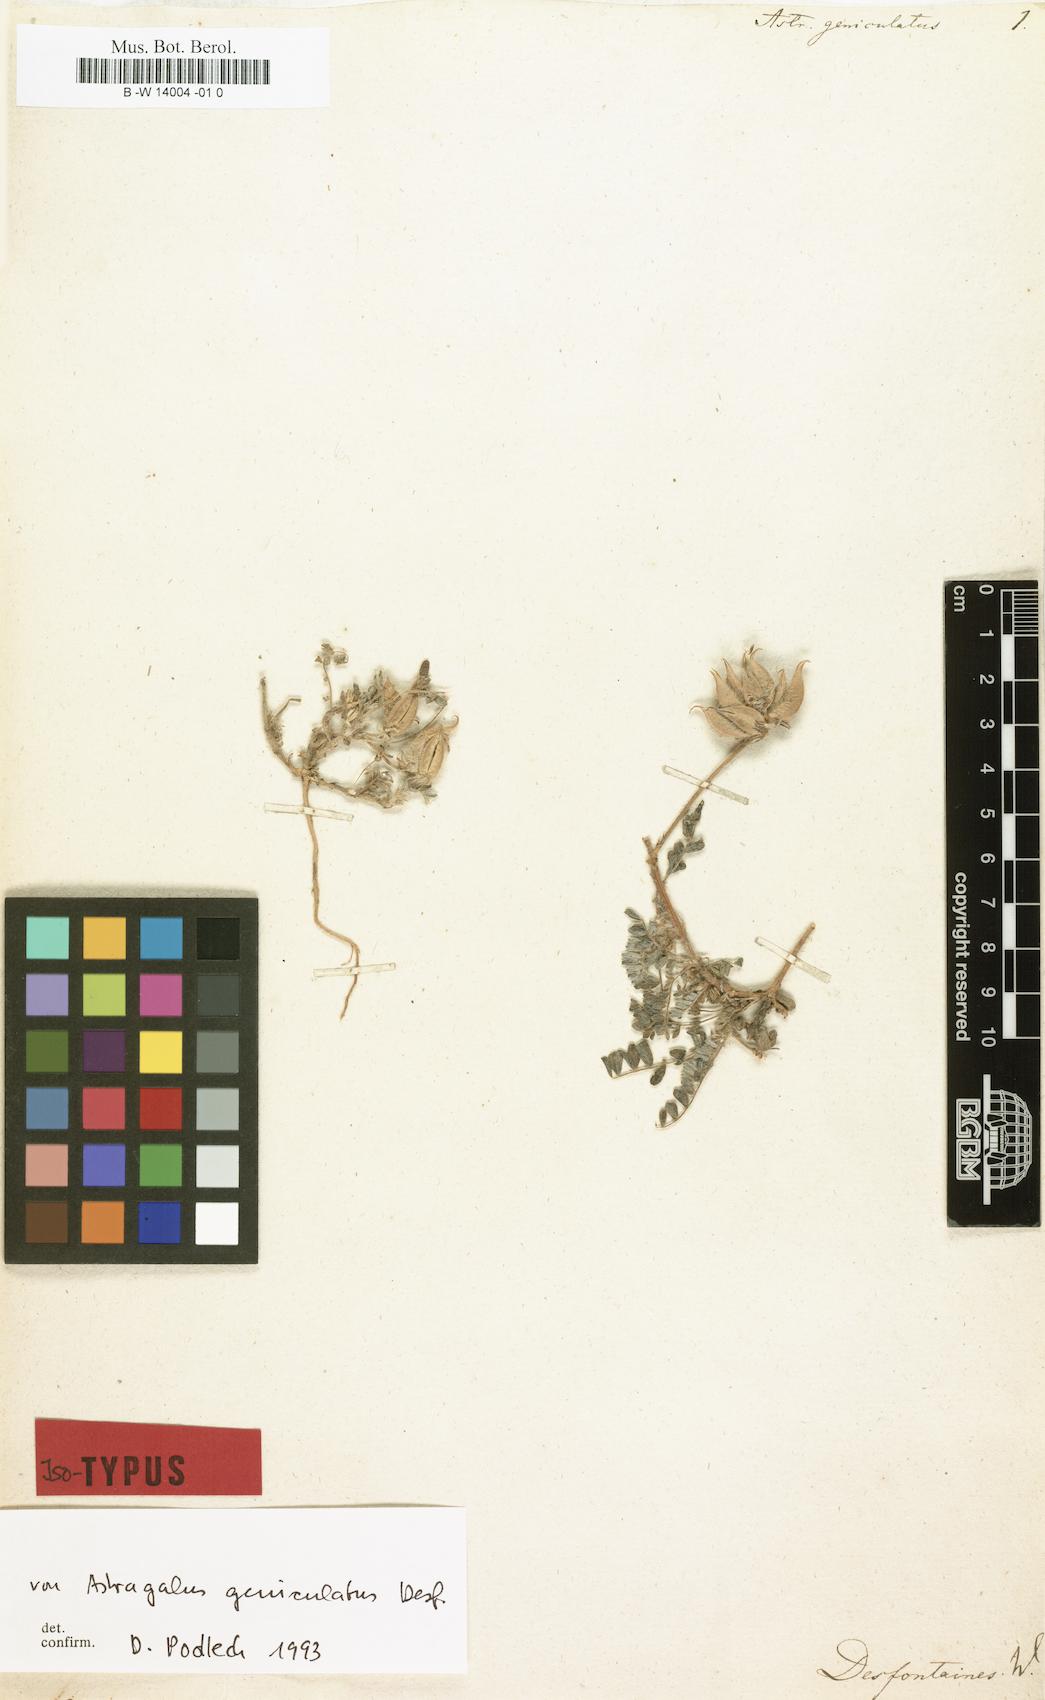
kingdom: Plantae
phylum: Tracheophyta
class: Magnoliopsida
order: Fabales
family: Fabaceae
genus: Astragalus
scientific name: Astragalus geniculatus
